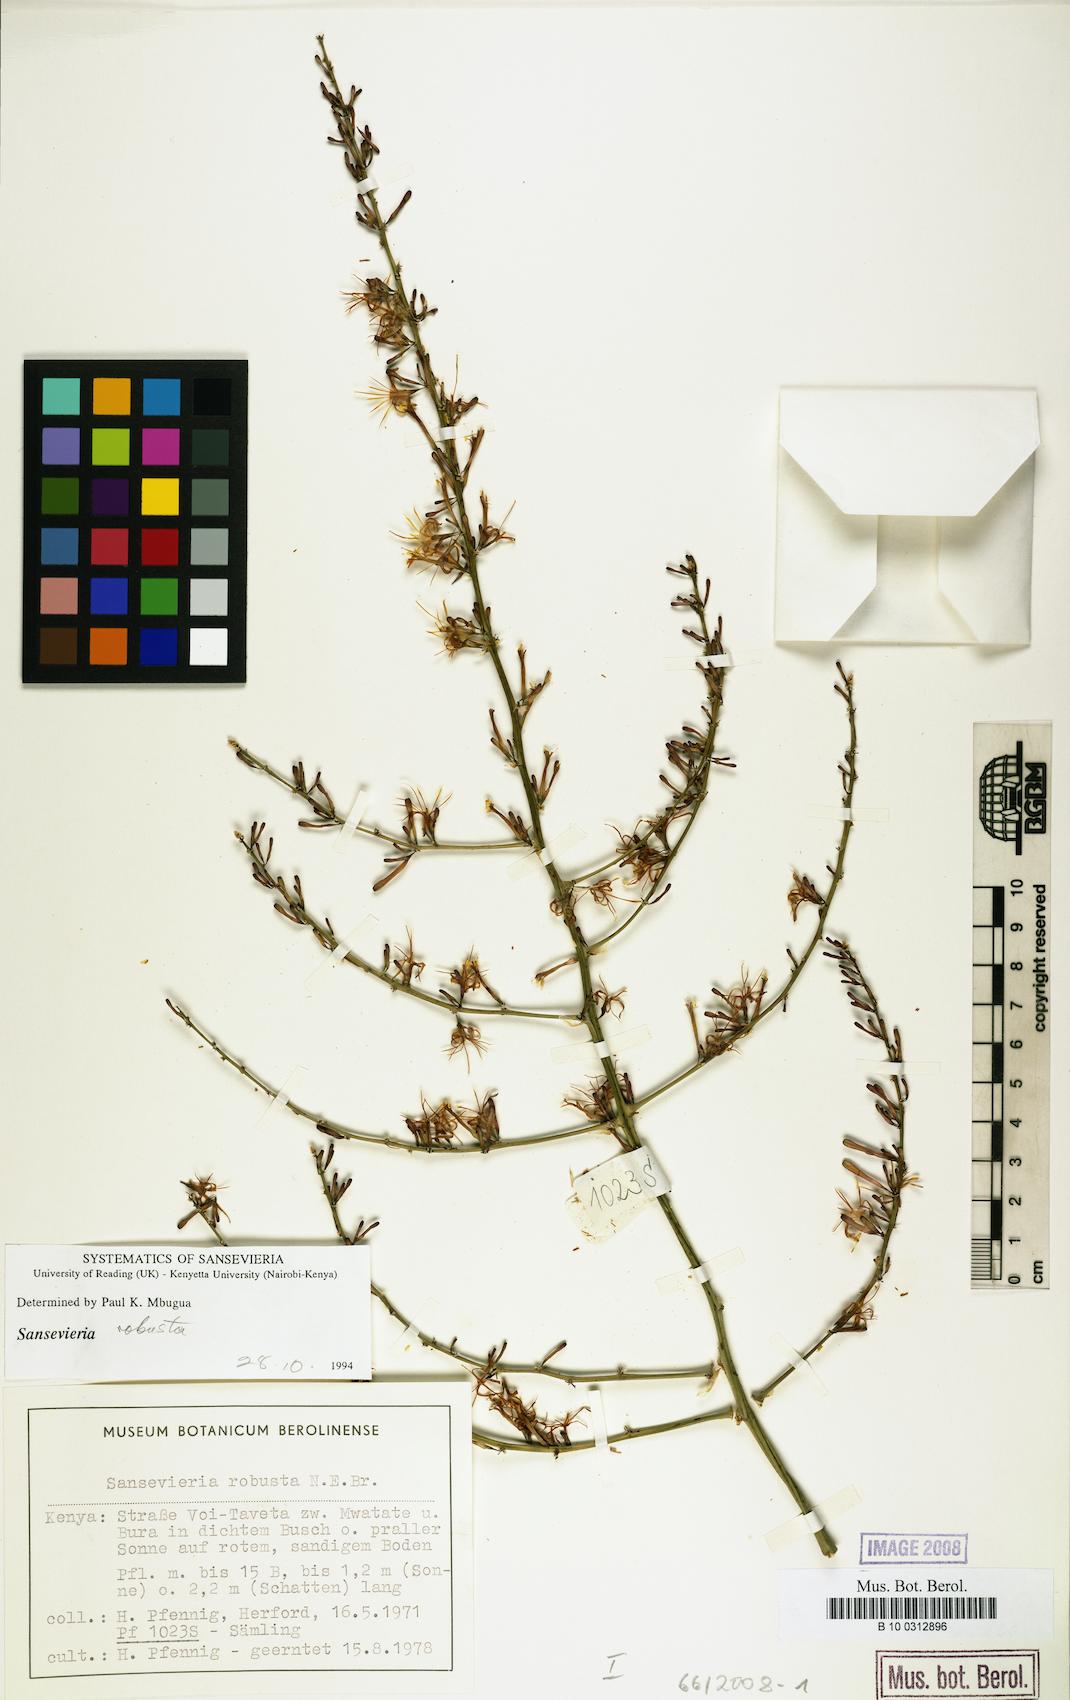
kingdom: Plantae
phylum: Tracheophyta
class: Liliopsida
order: Asparagales
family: Asparagaceae
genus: Dracaena
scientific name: Dracaena perrotii
